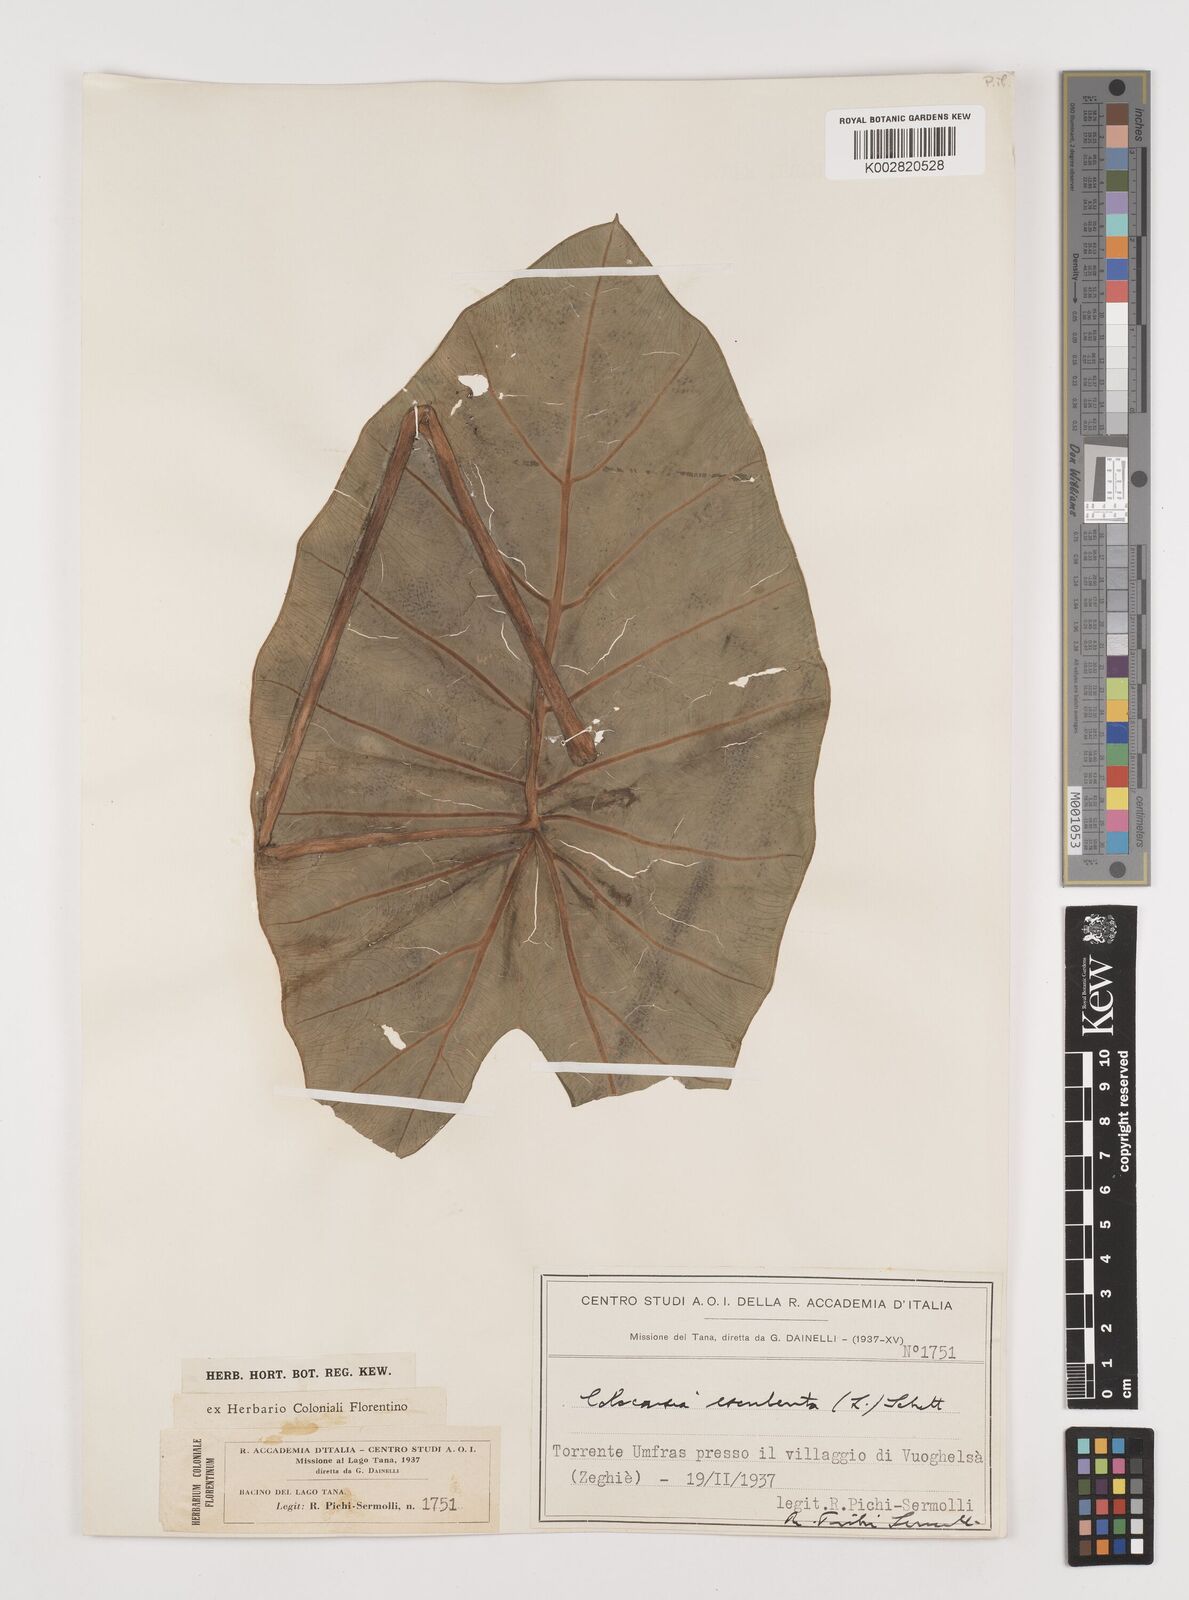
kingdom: Plantae
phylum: Tracheophyta
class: Liliopsida
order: Alismatales
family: Araceae
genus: Colocasia
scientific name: Colocasia esculenta
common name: Taro
